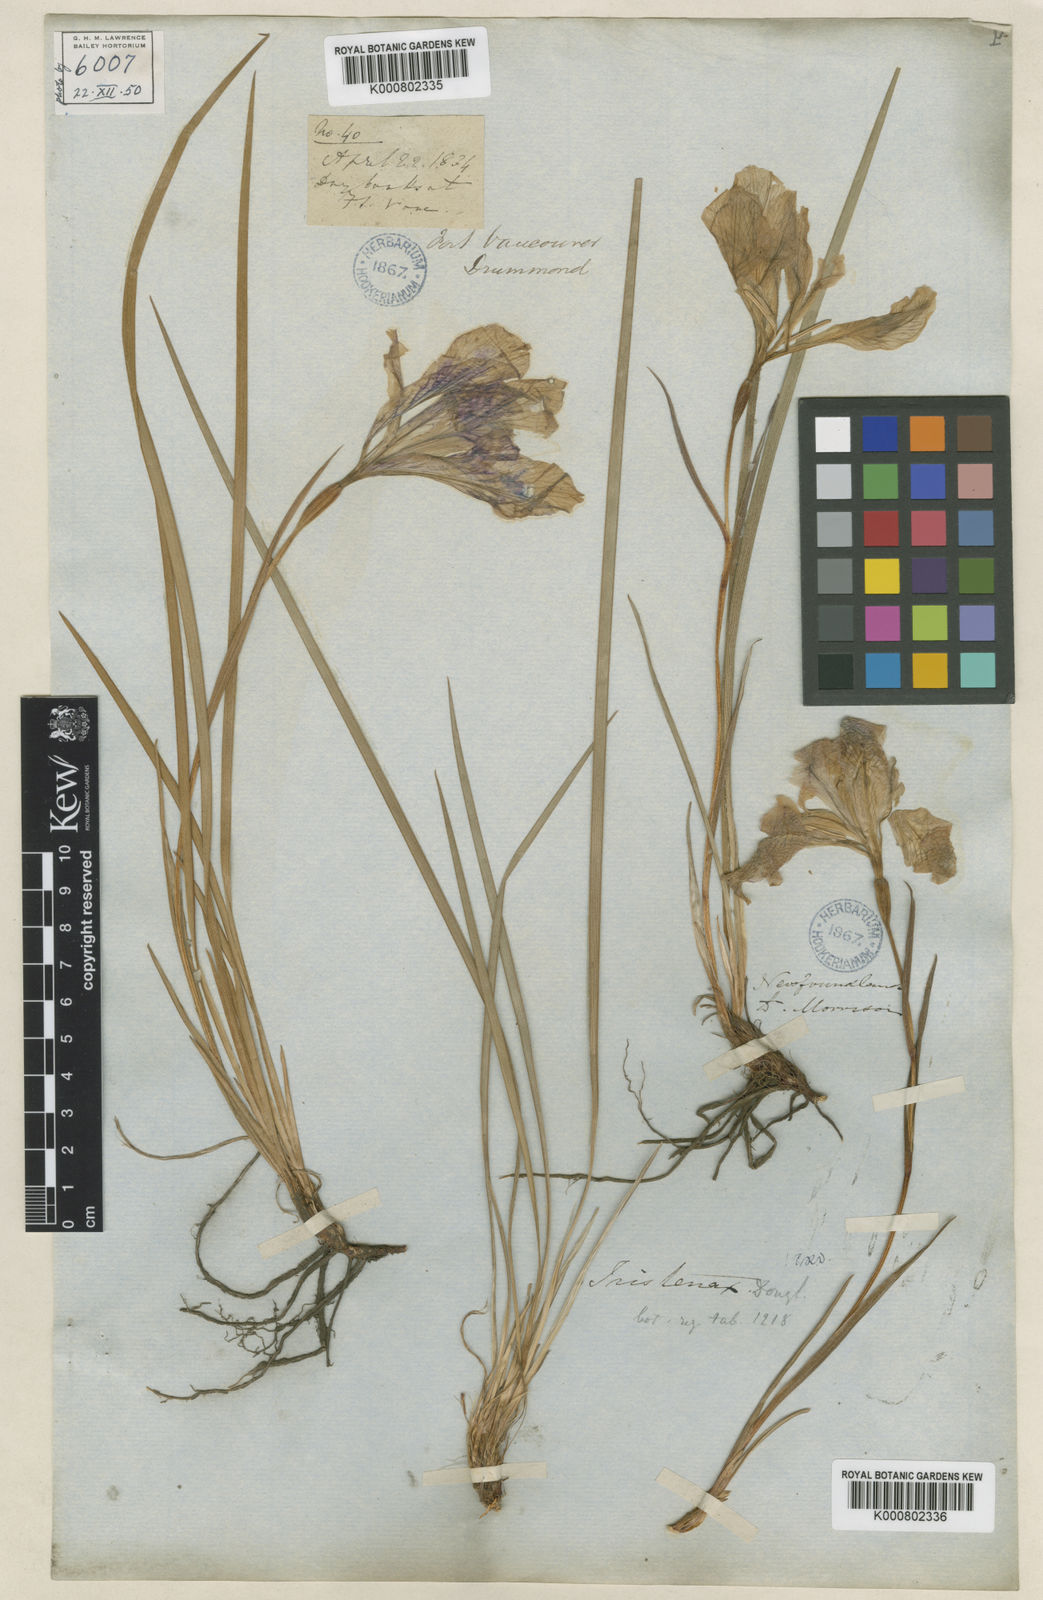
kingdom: Plantae
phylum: Tracheophyta
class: Liliopsida
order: Asparagales
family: Iridaceae
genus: Iris
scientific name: Iris tenax
